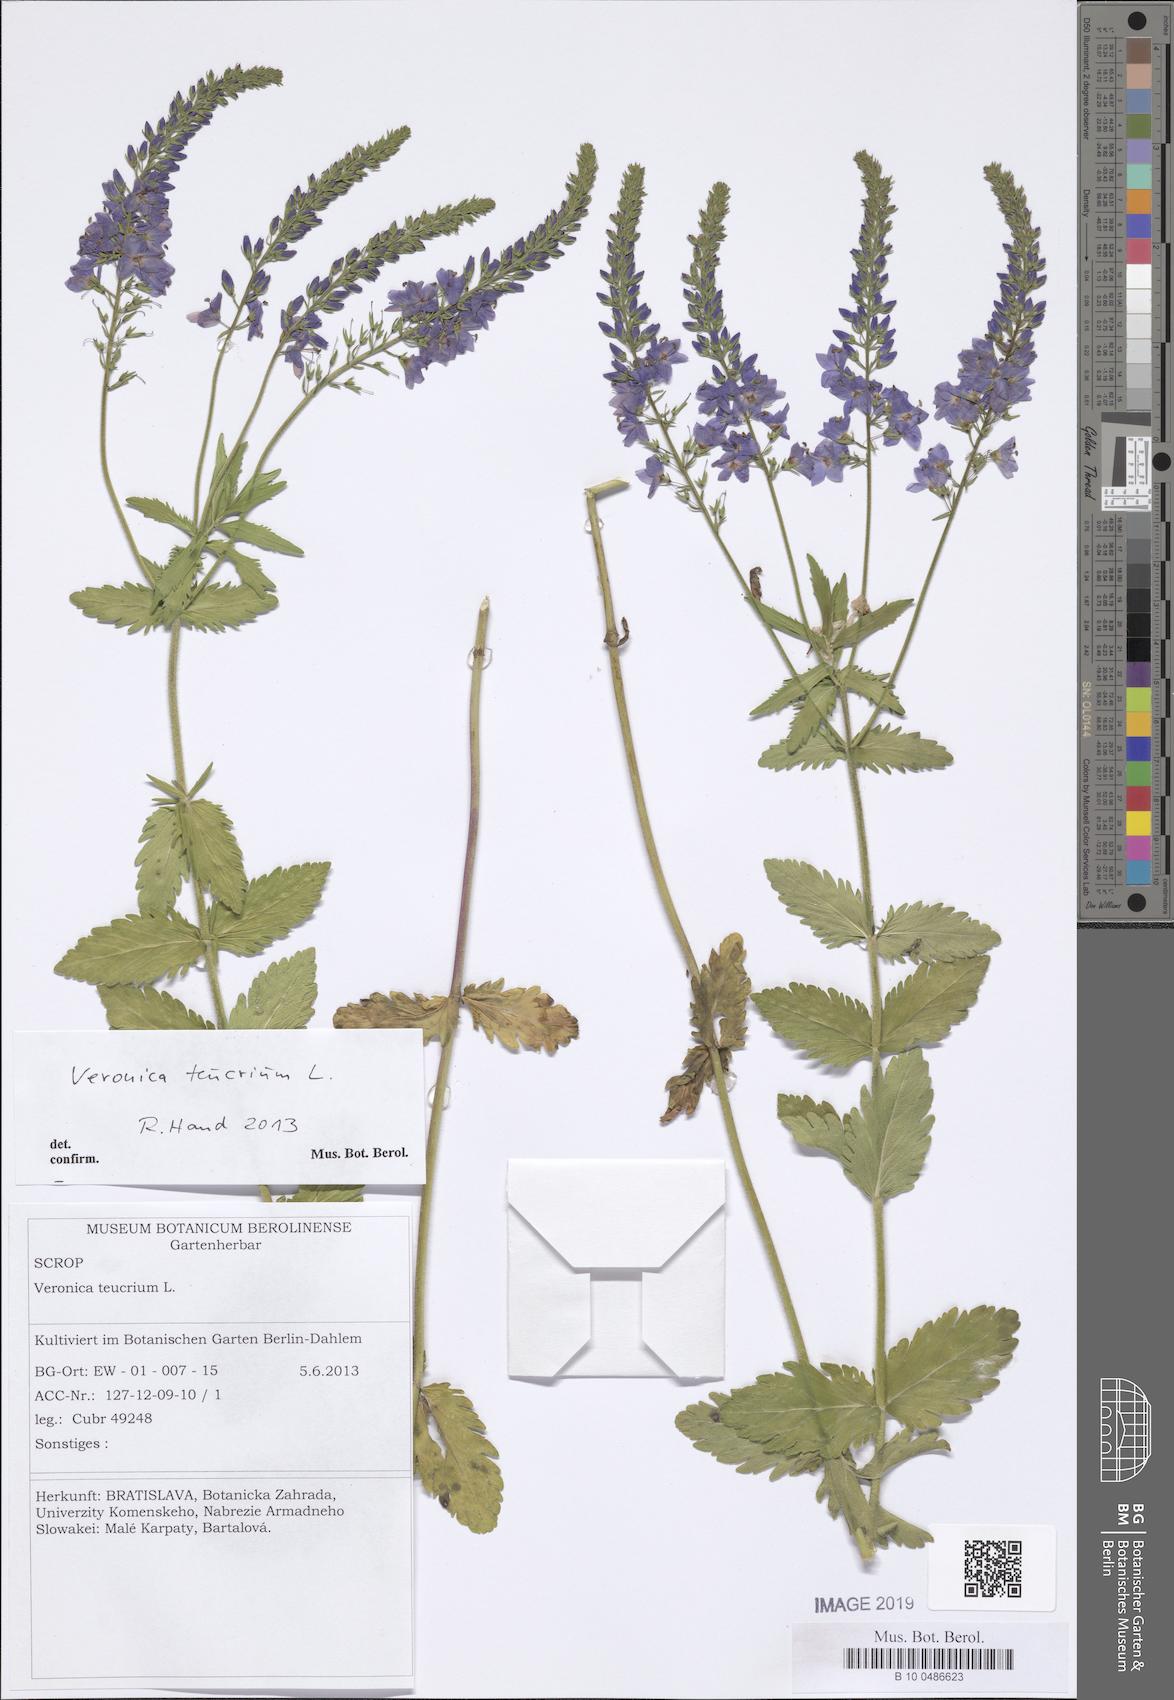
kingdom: Plantae
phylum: Tracheophyta
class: Magnoliopsida
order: Lamiales
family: Plantaginaceae
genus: Veronica
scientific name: Veronica teucrium
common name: Large speedwell
